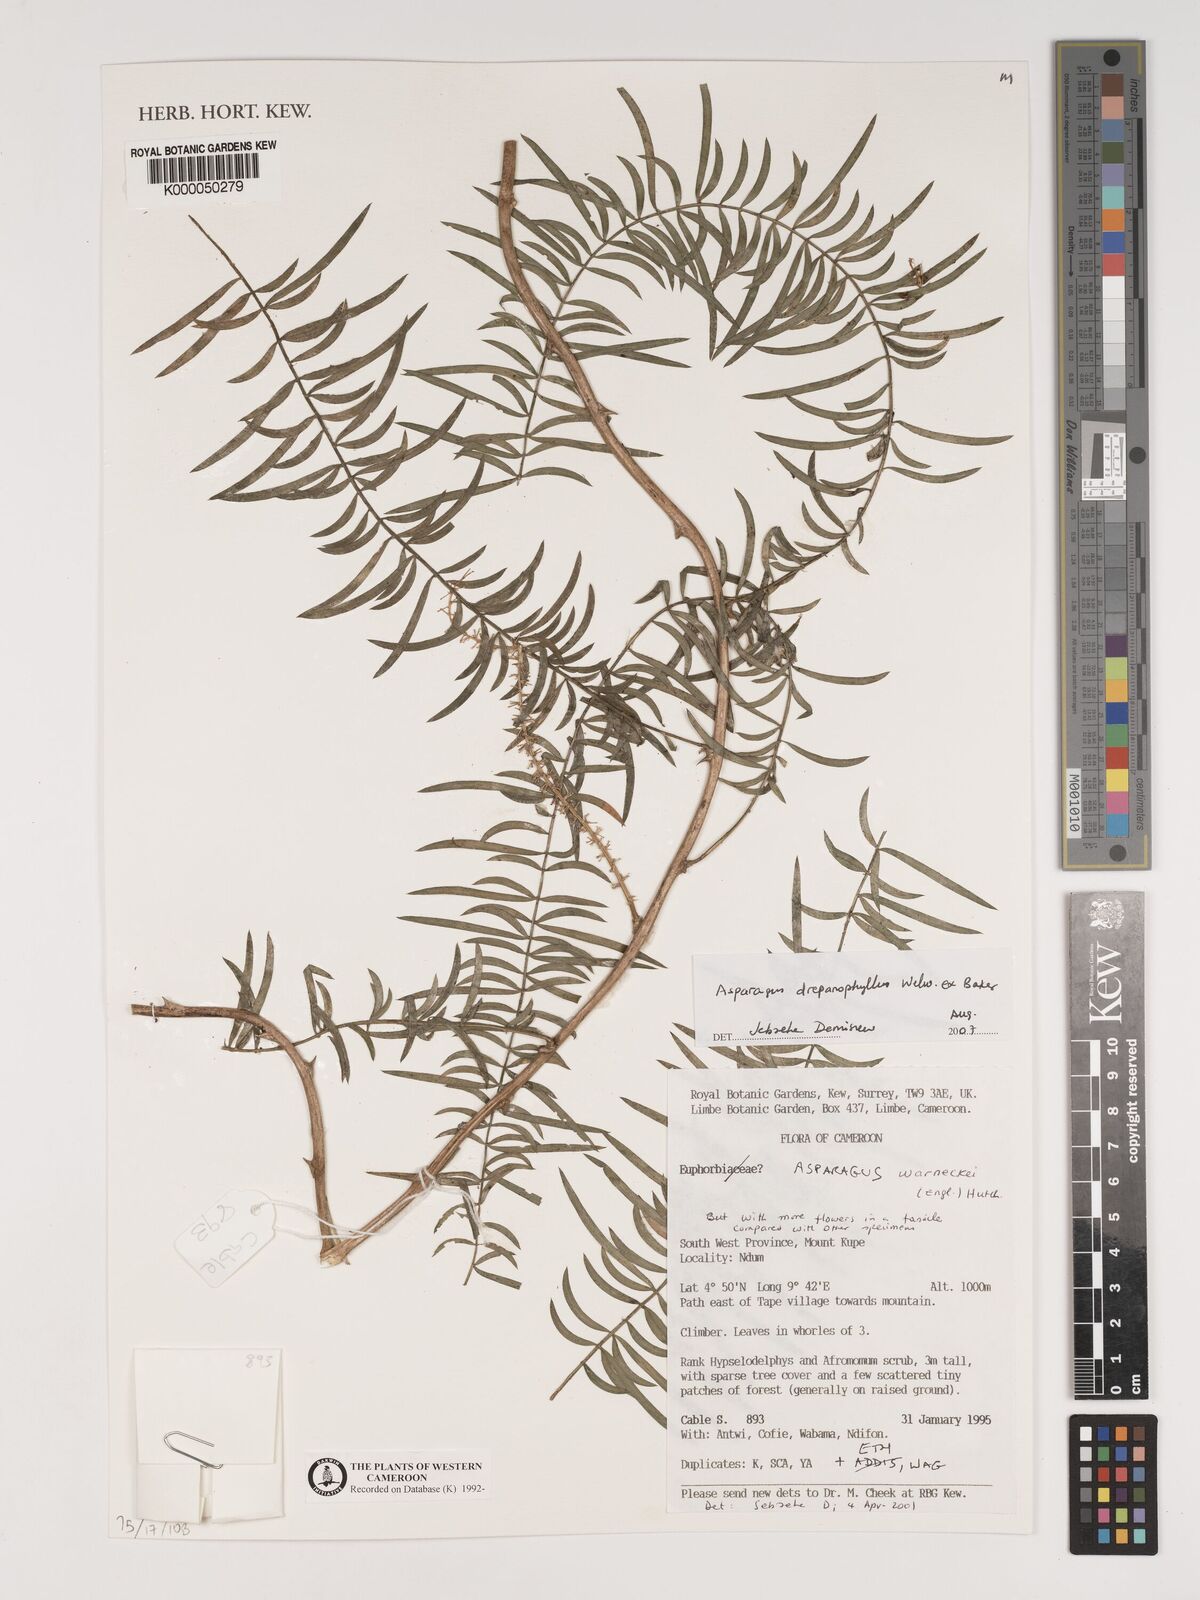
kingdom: Plantae
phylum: Tracheophyta
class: Liliopsida
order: Asparagales
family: Asparagaceae
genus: Asparagus
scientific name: Asparagus warneckei
